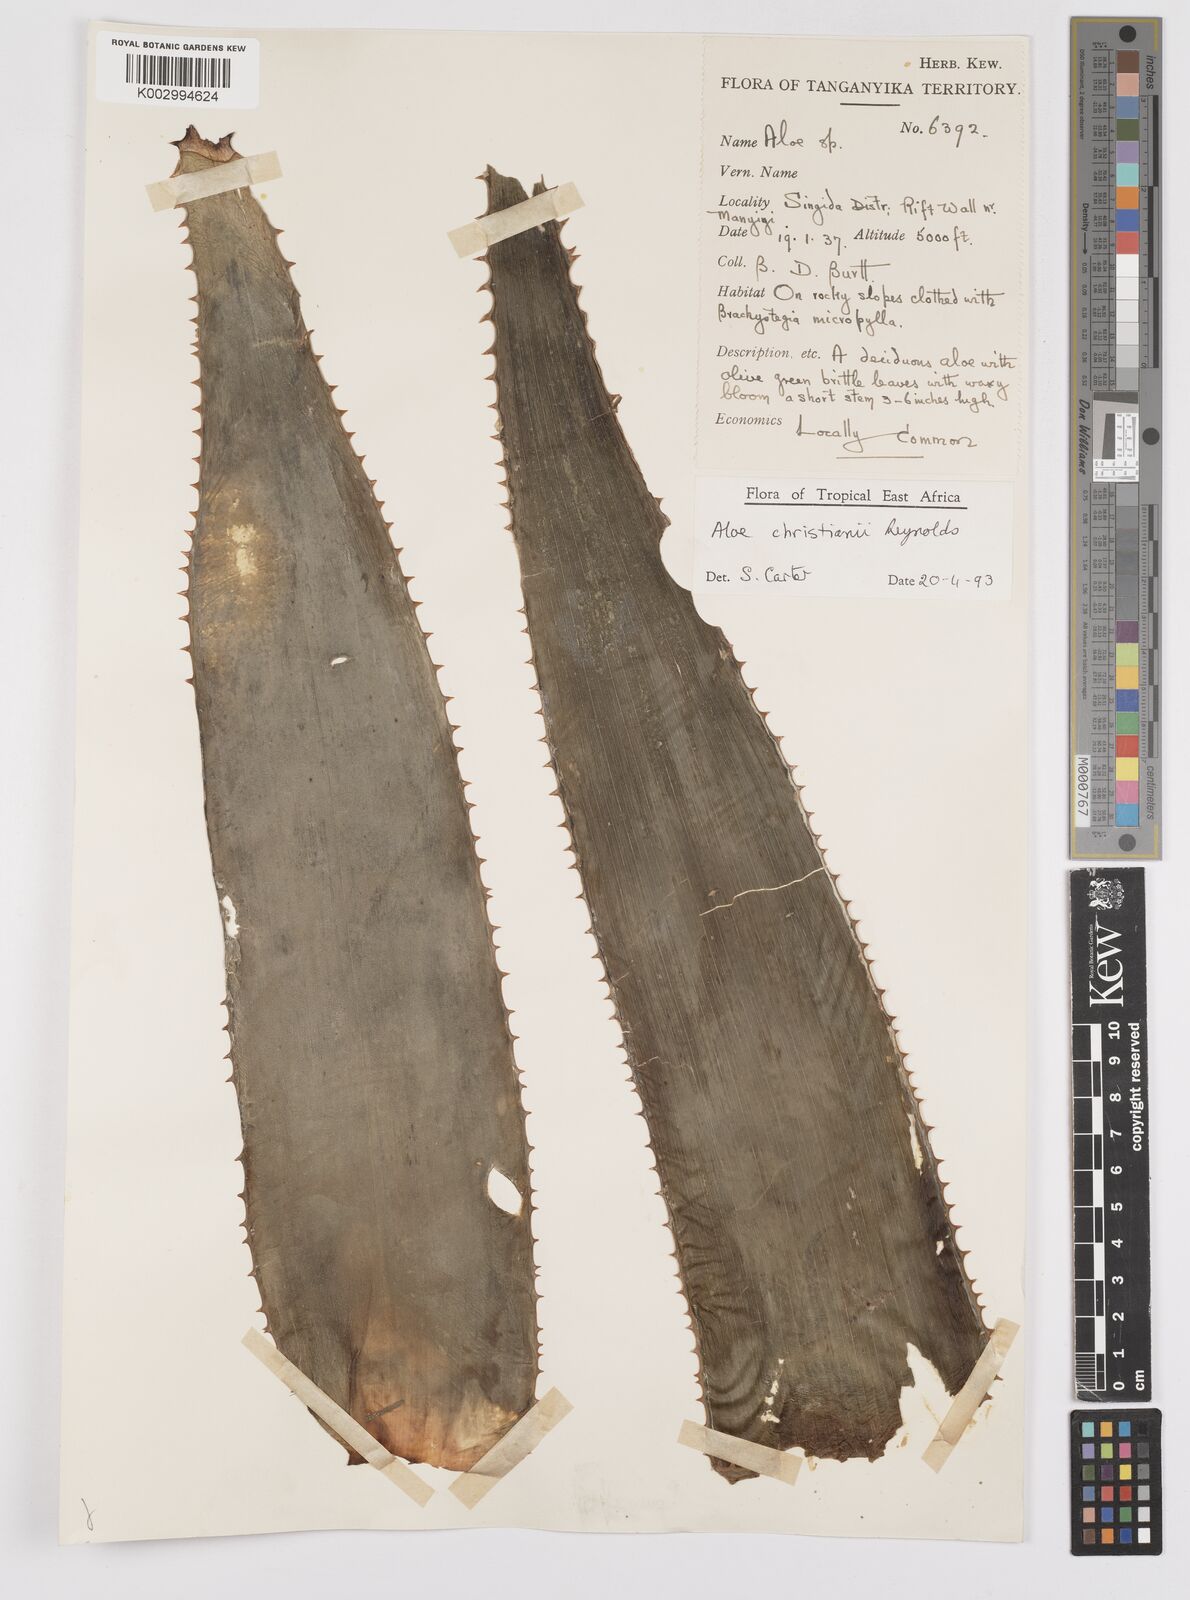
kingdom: Plantae
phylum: Tracheophyta
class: Liliopsida
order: Asparagales
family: Asphodelaceae
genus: Aloe
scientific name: Aloe christianii
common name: Basil christian's aloe
